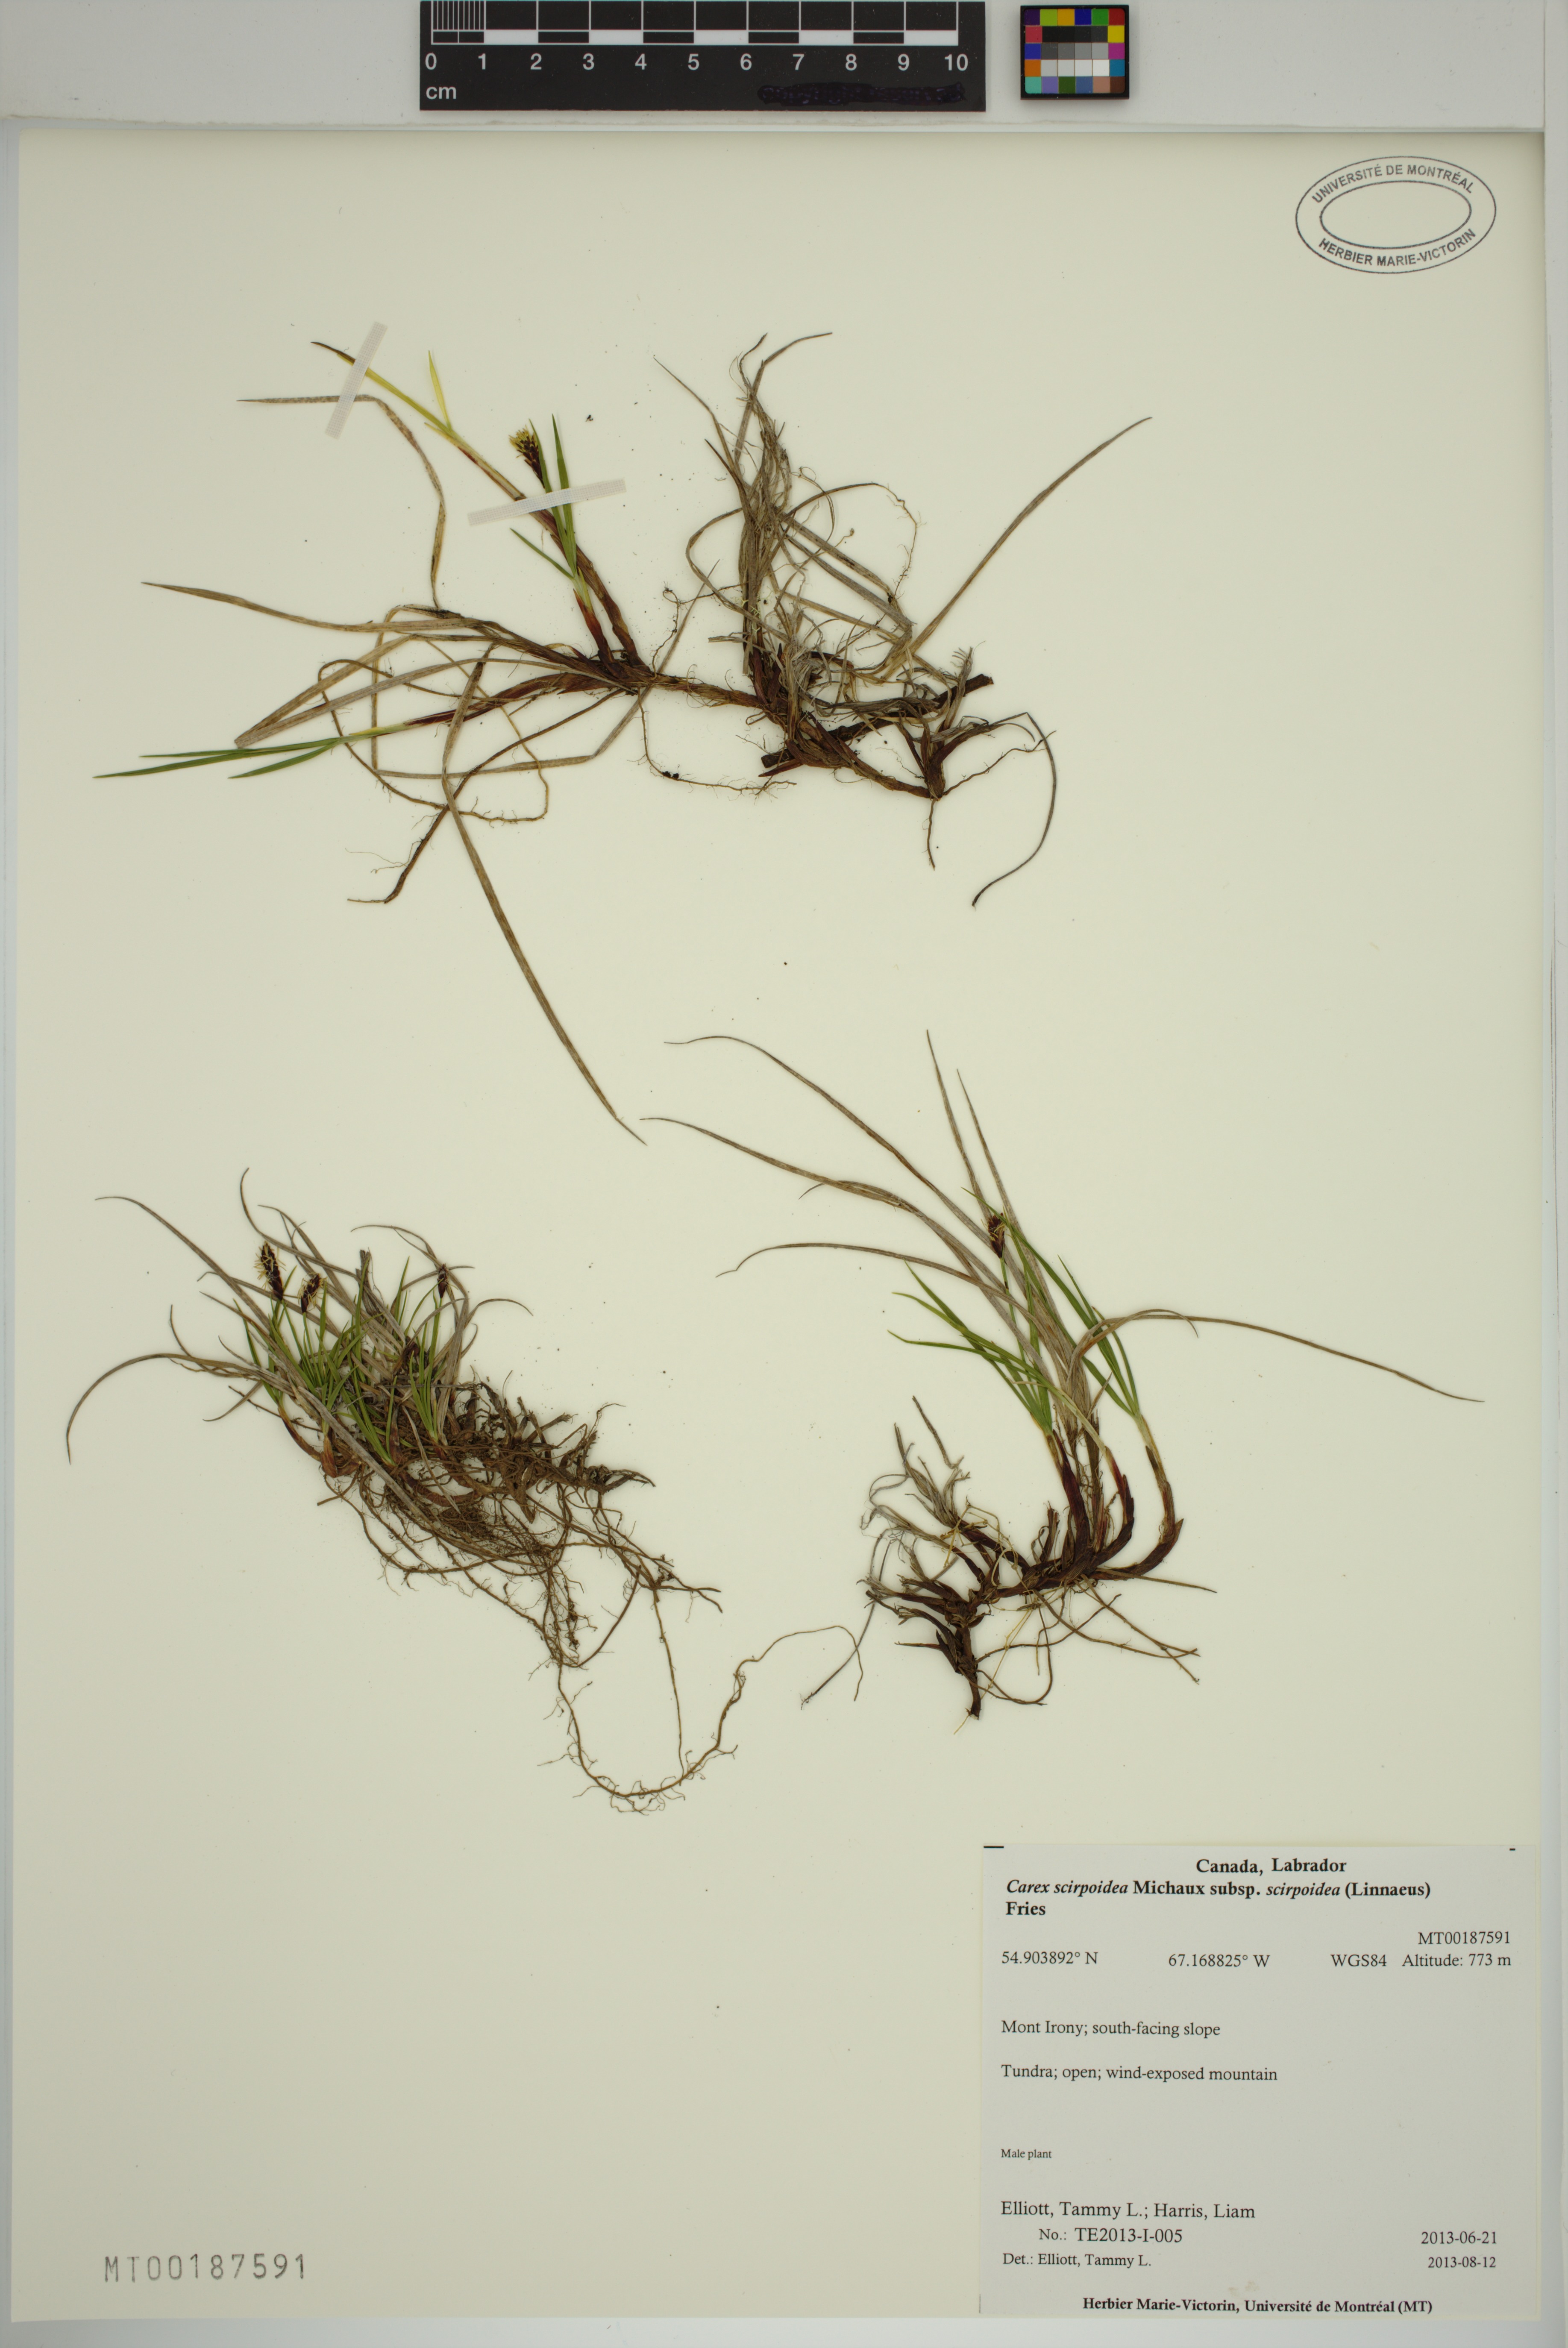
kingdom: Plantae
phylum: Tracheophyta
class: Liliopsida
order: Poales
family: Cyperaceae
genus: Carex
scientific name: Carex scirpoidea
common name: Canada single-spike sedge
